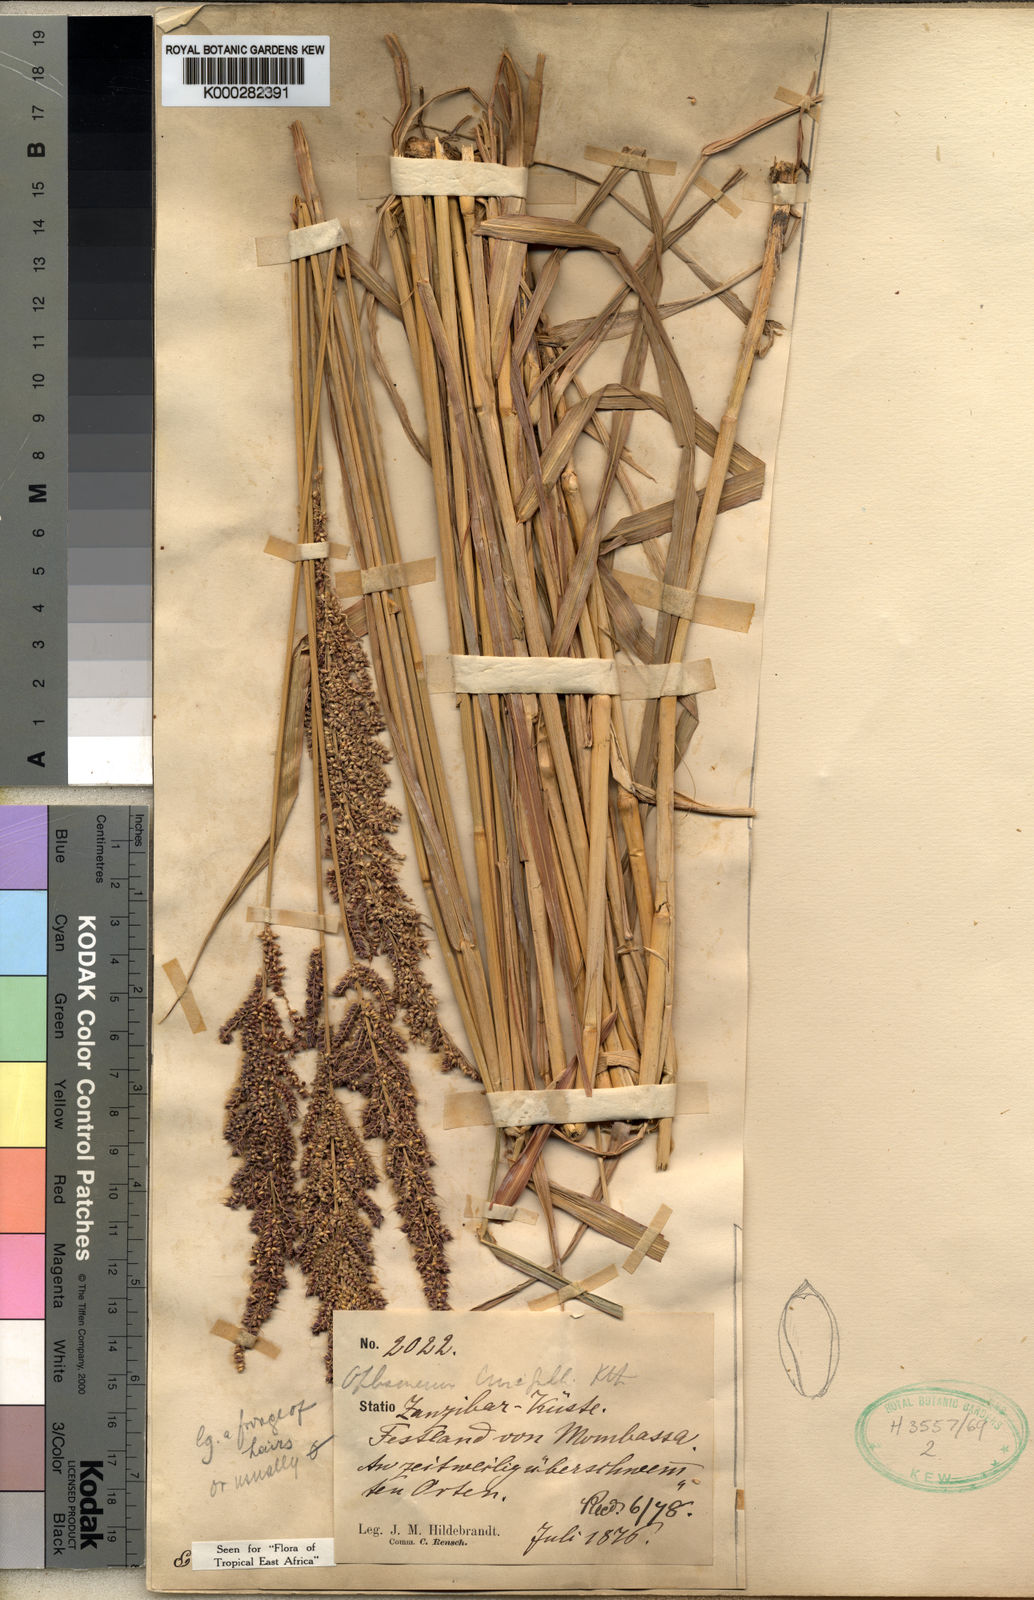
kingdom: Plantae
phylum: Tracheophyta
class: Liliopsida
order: Poales
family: Poaceae
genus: Echinochloa
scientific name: Echinochloa haploclada
